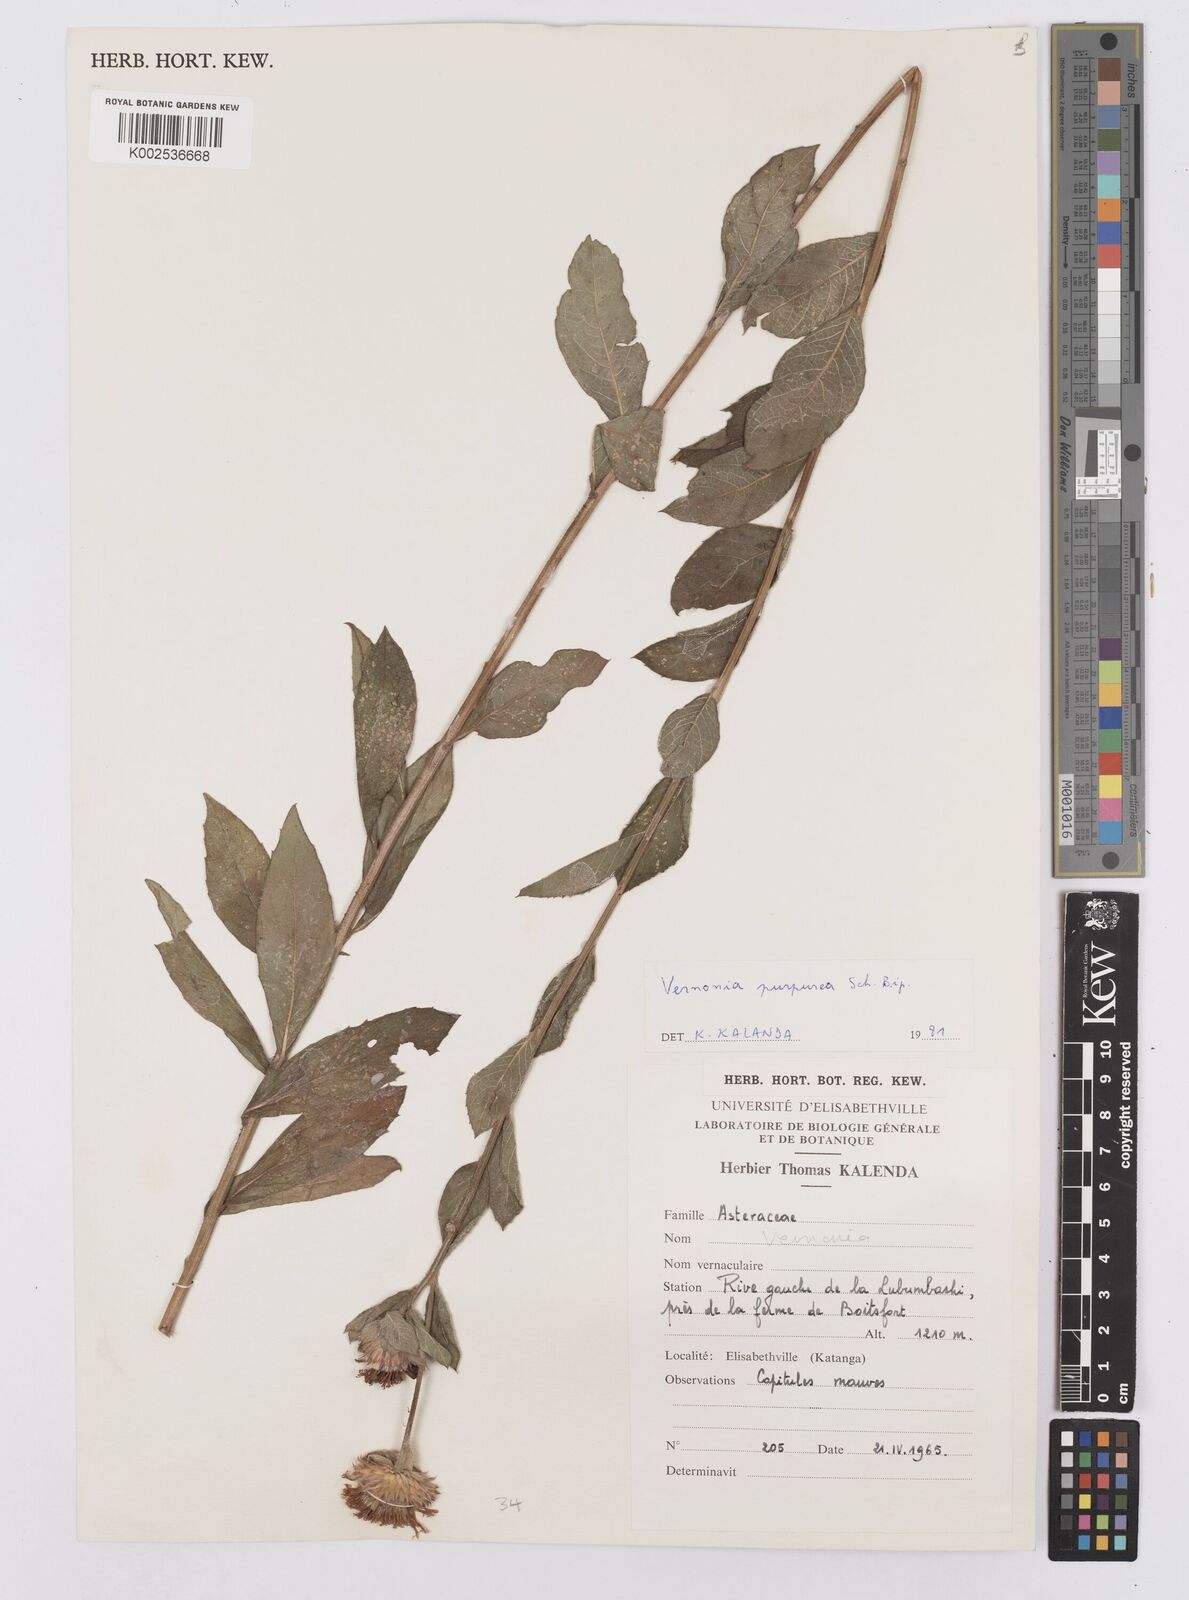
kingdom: Plantae
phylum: Tracheophyta
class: Magnoliopsida
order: Asterales
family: Asteraceae
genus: Nothovernonia
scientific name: Nothovernonia purpurea
